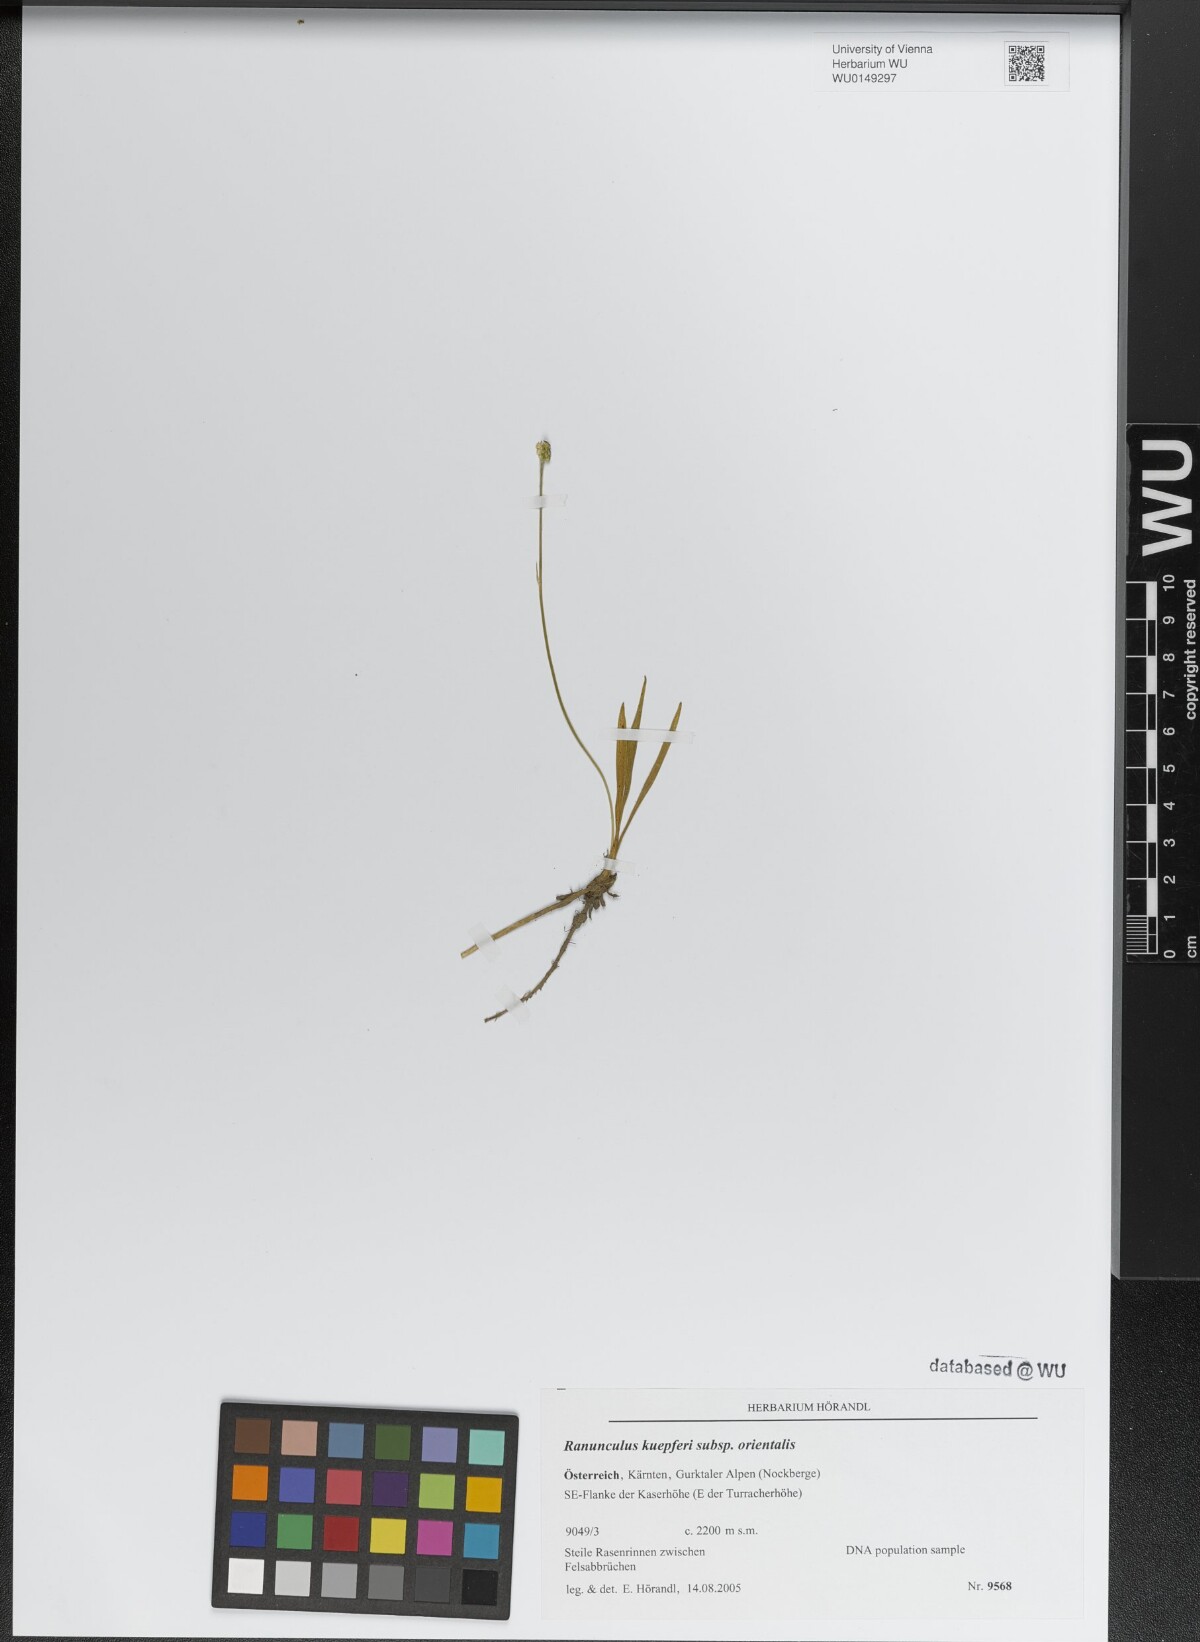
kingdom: Plantae
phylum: Tracheophyta
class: Magnoliopsida
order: Ranunculales
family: Ranunculaceae
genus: Ranunculus
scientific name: Ranunculus kuepferi
